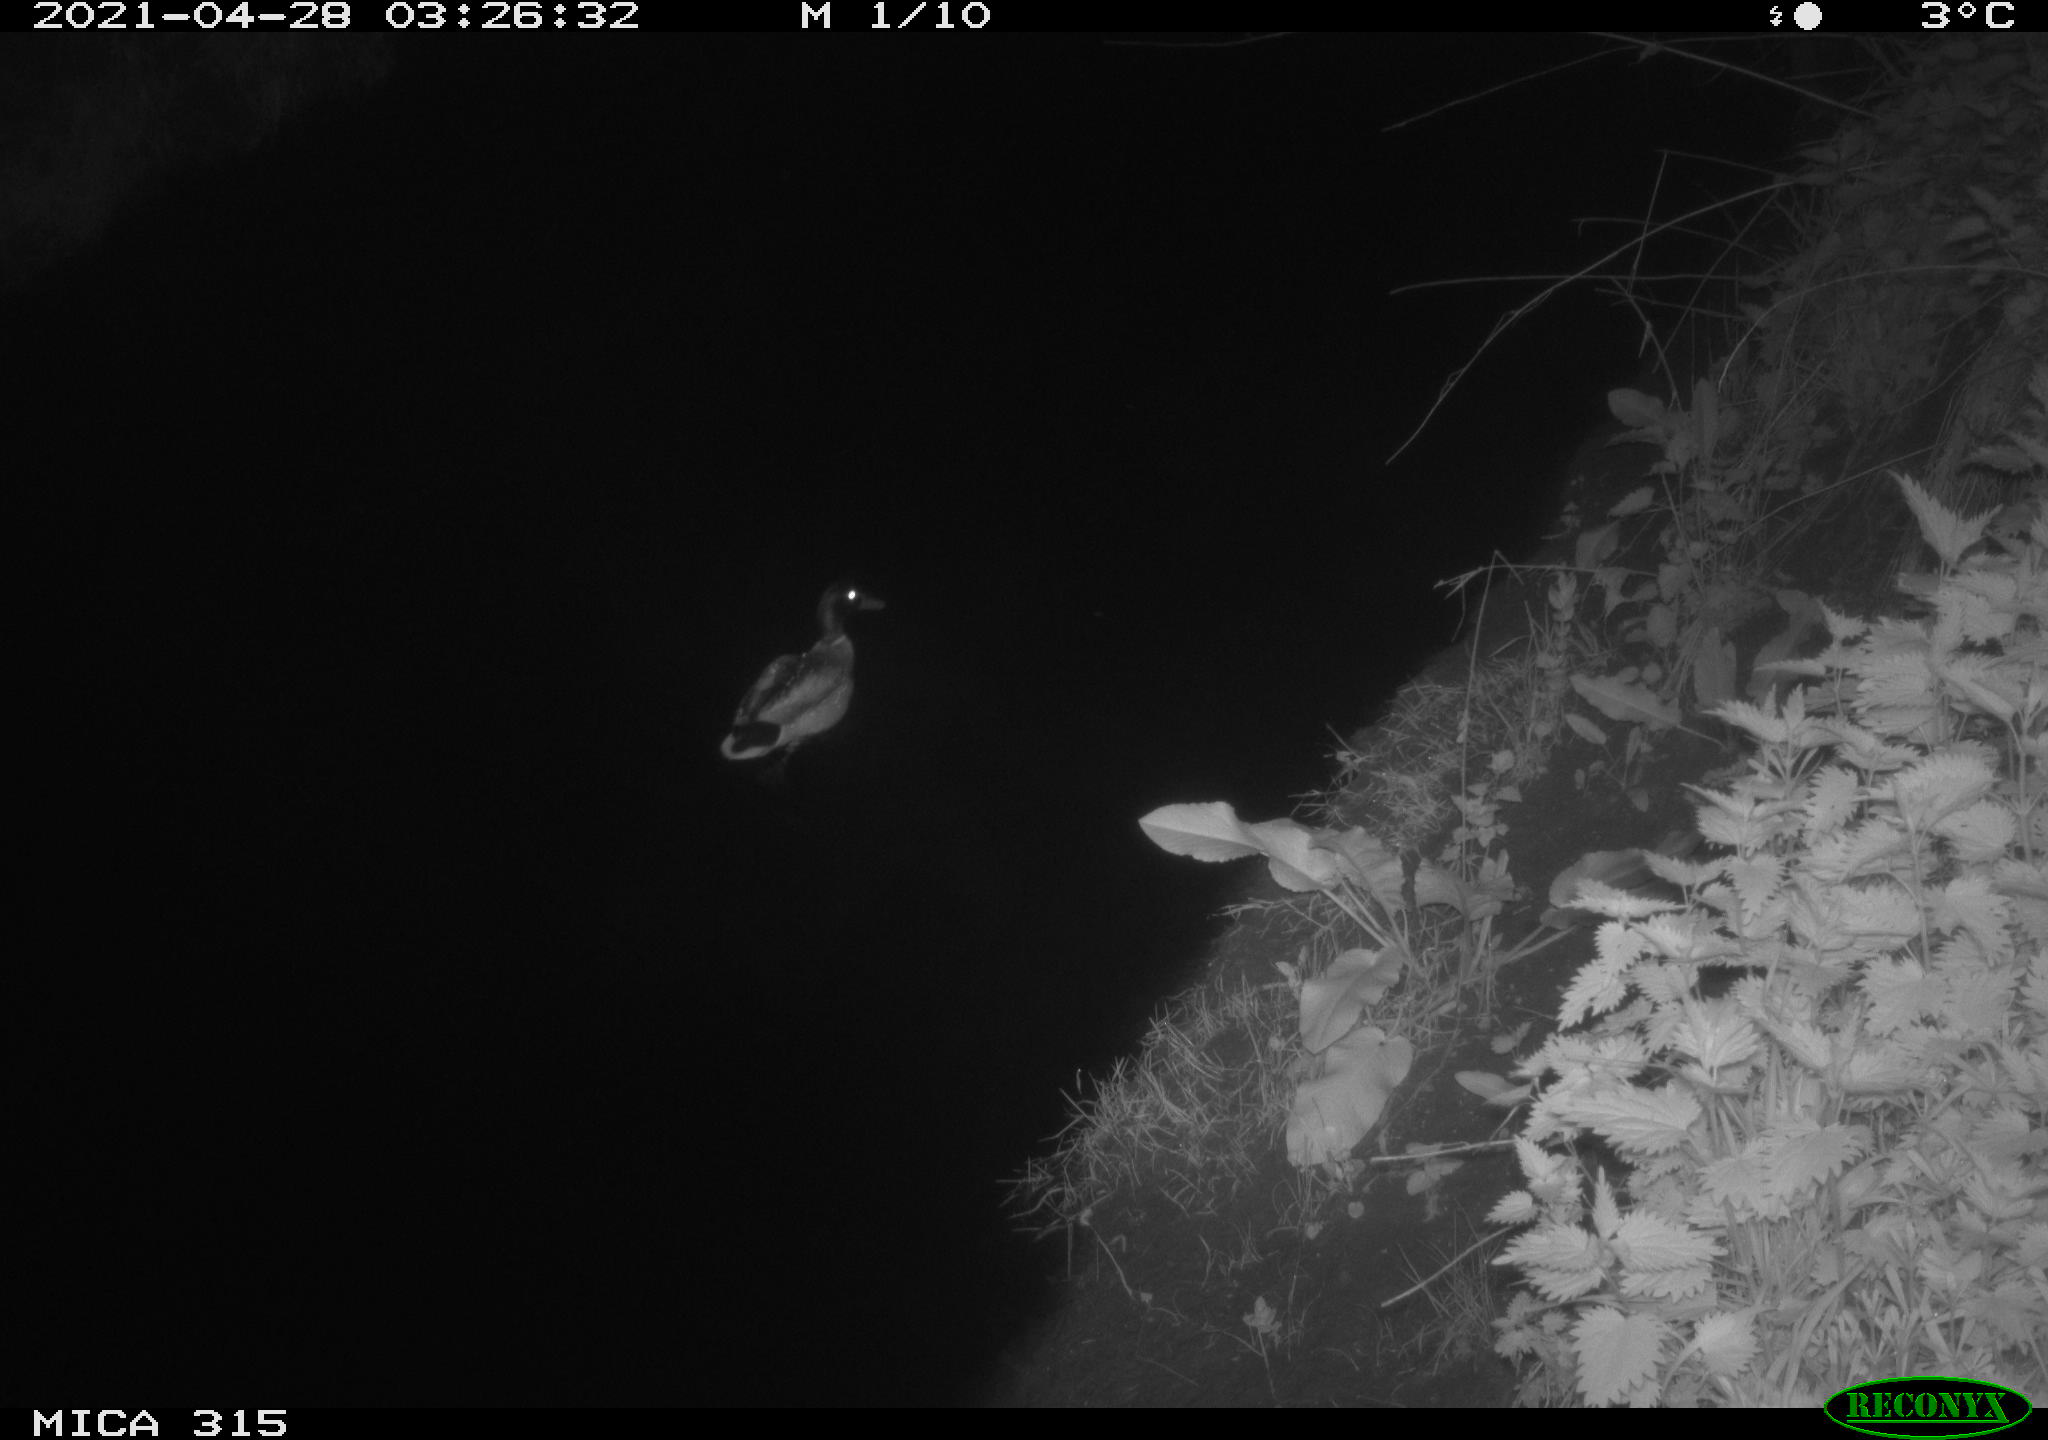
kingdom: Animalia
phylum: Chordata
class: Aves
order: Anseriformes
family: Anatidae
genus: Anas
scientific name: Anas
